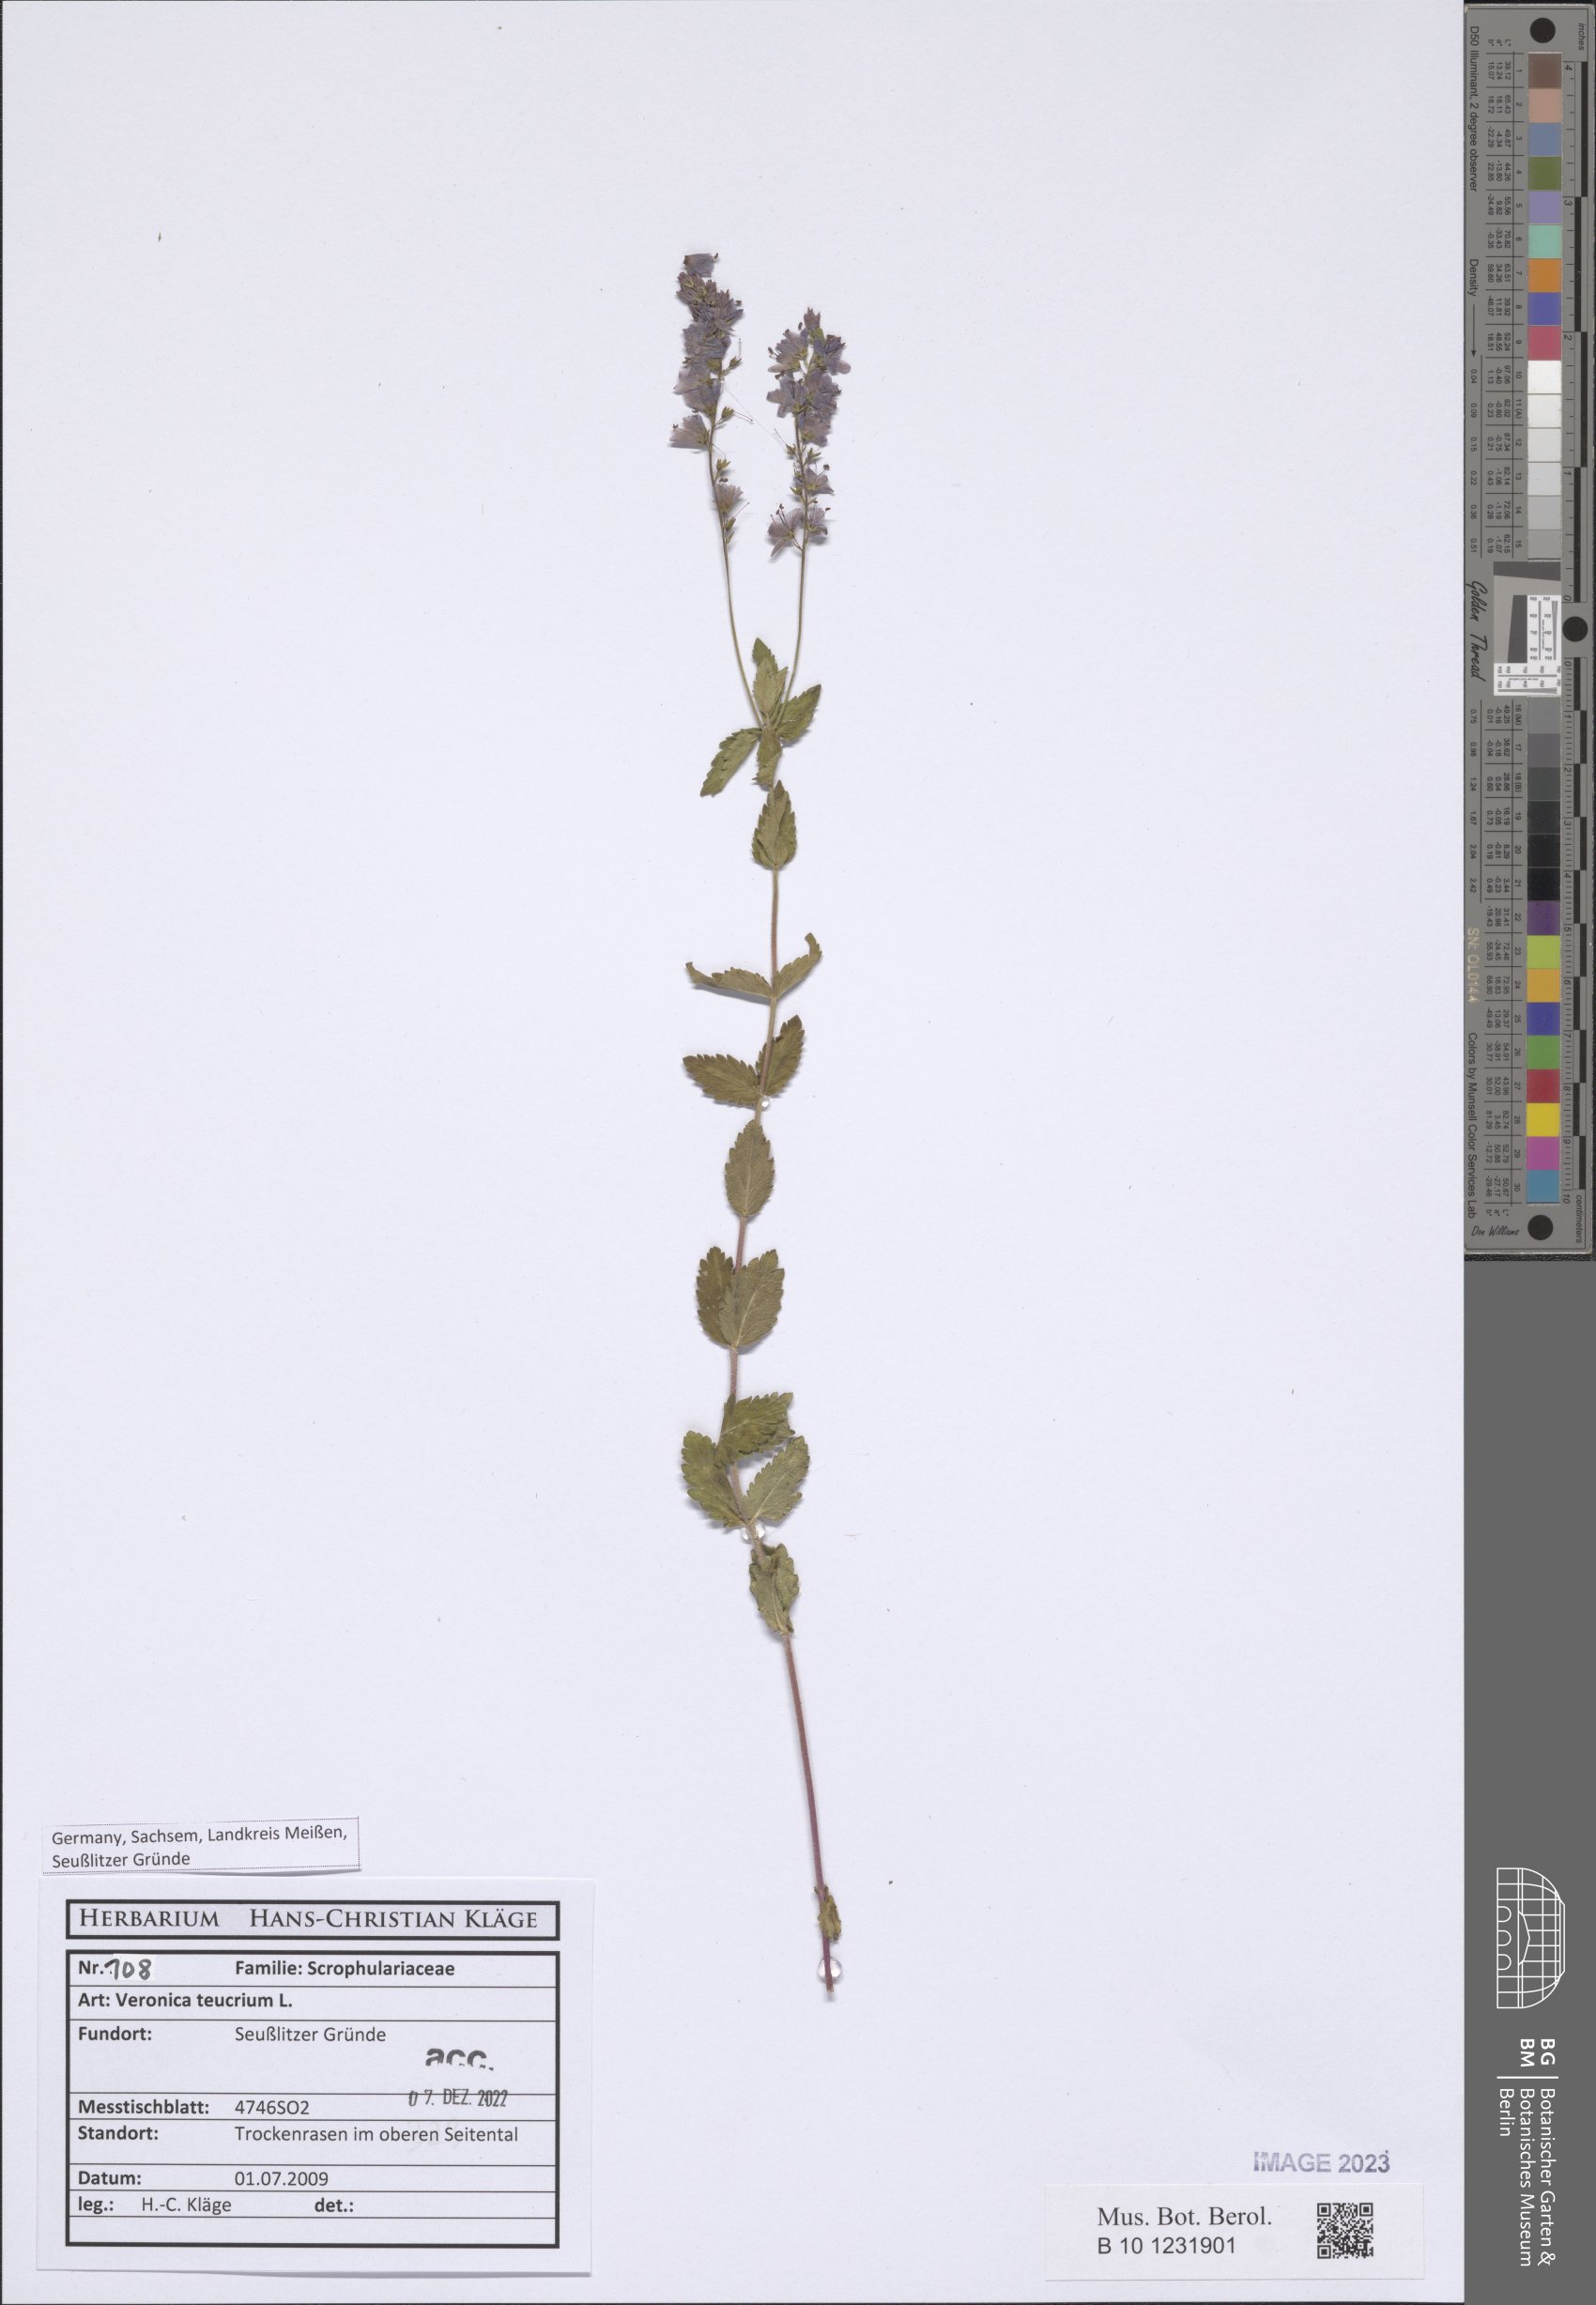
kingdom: Plantae
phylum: Tracheophyta
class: Magnoliopsida
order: Lamiales
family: Plantaginaceae
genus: Veronica
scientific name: Veronica teucrium
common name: Large speedwell
